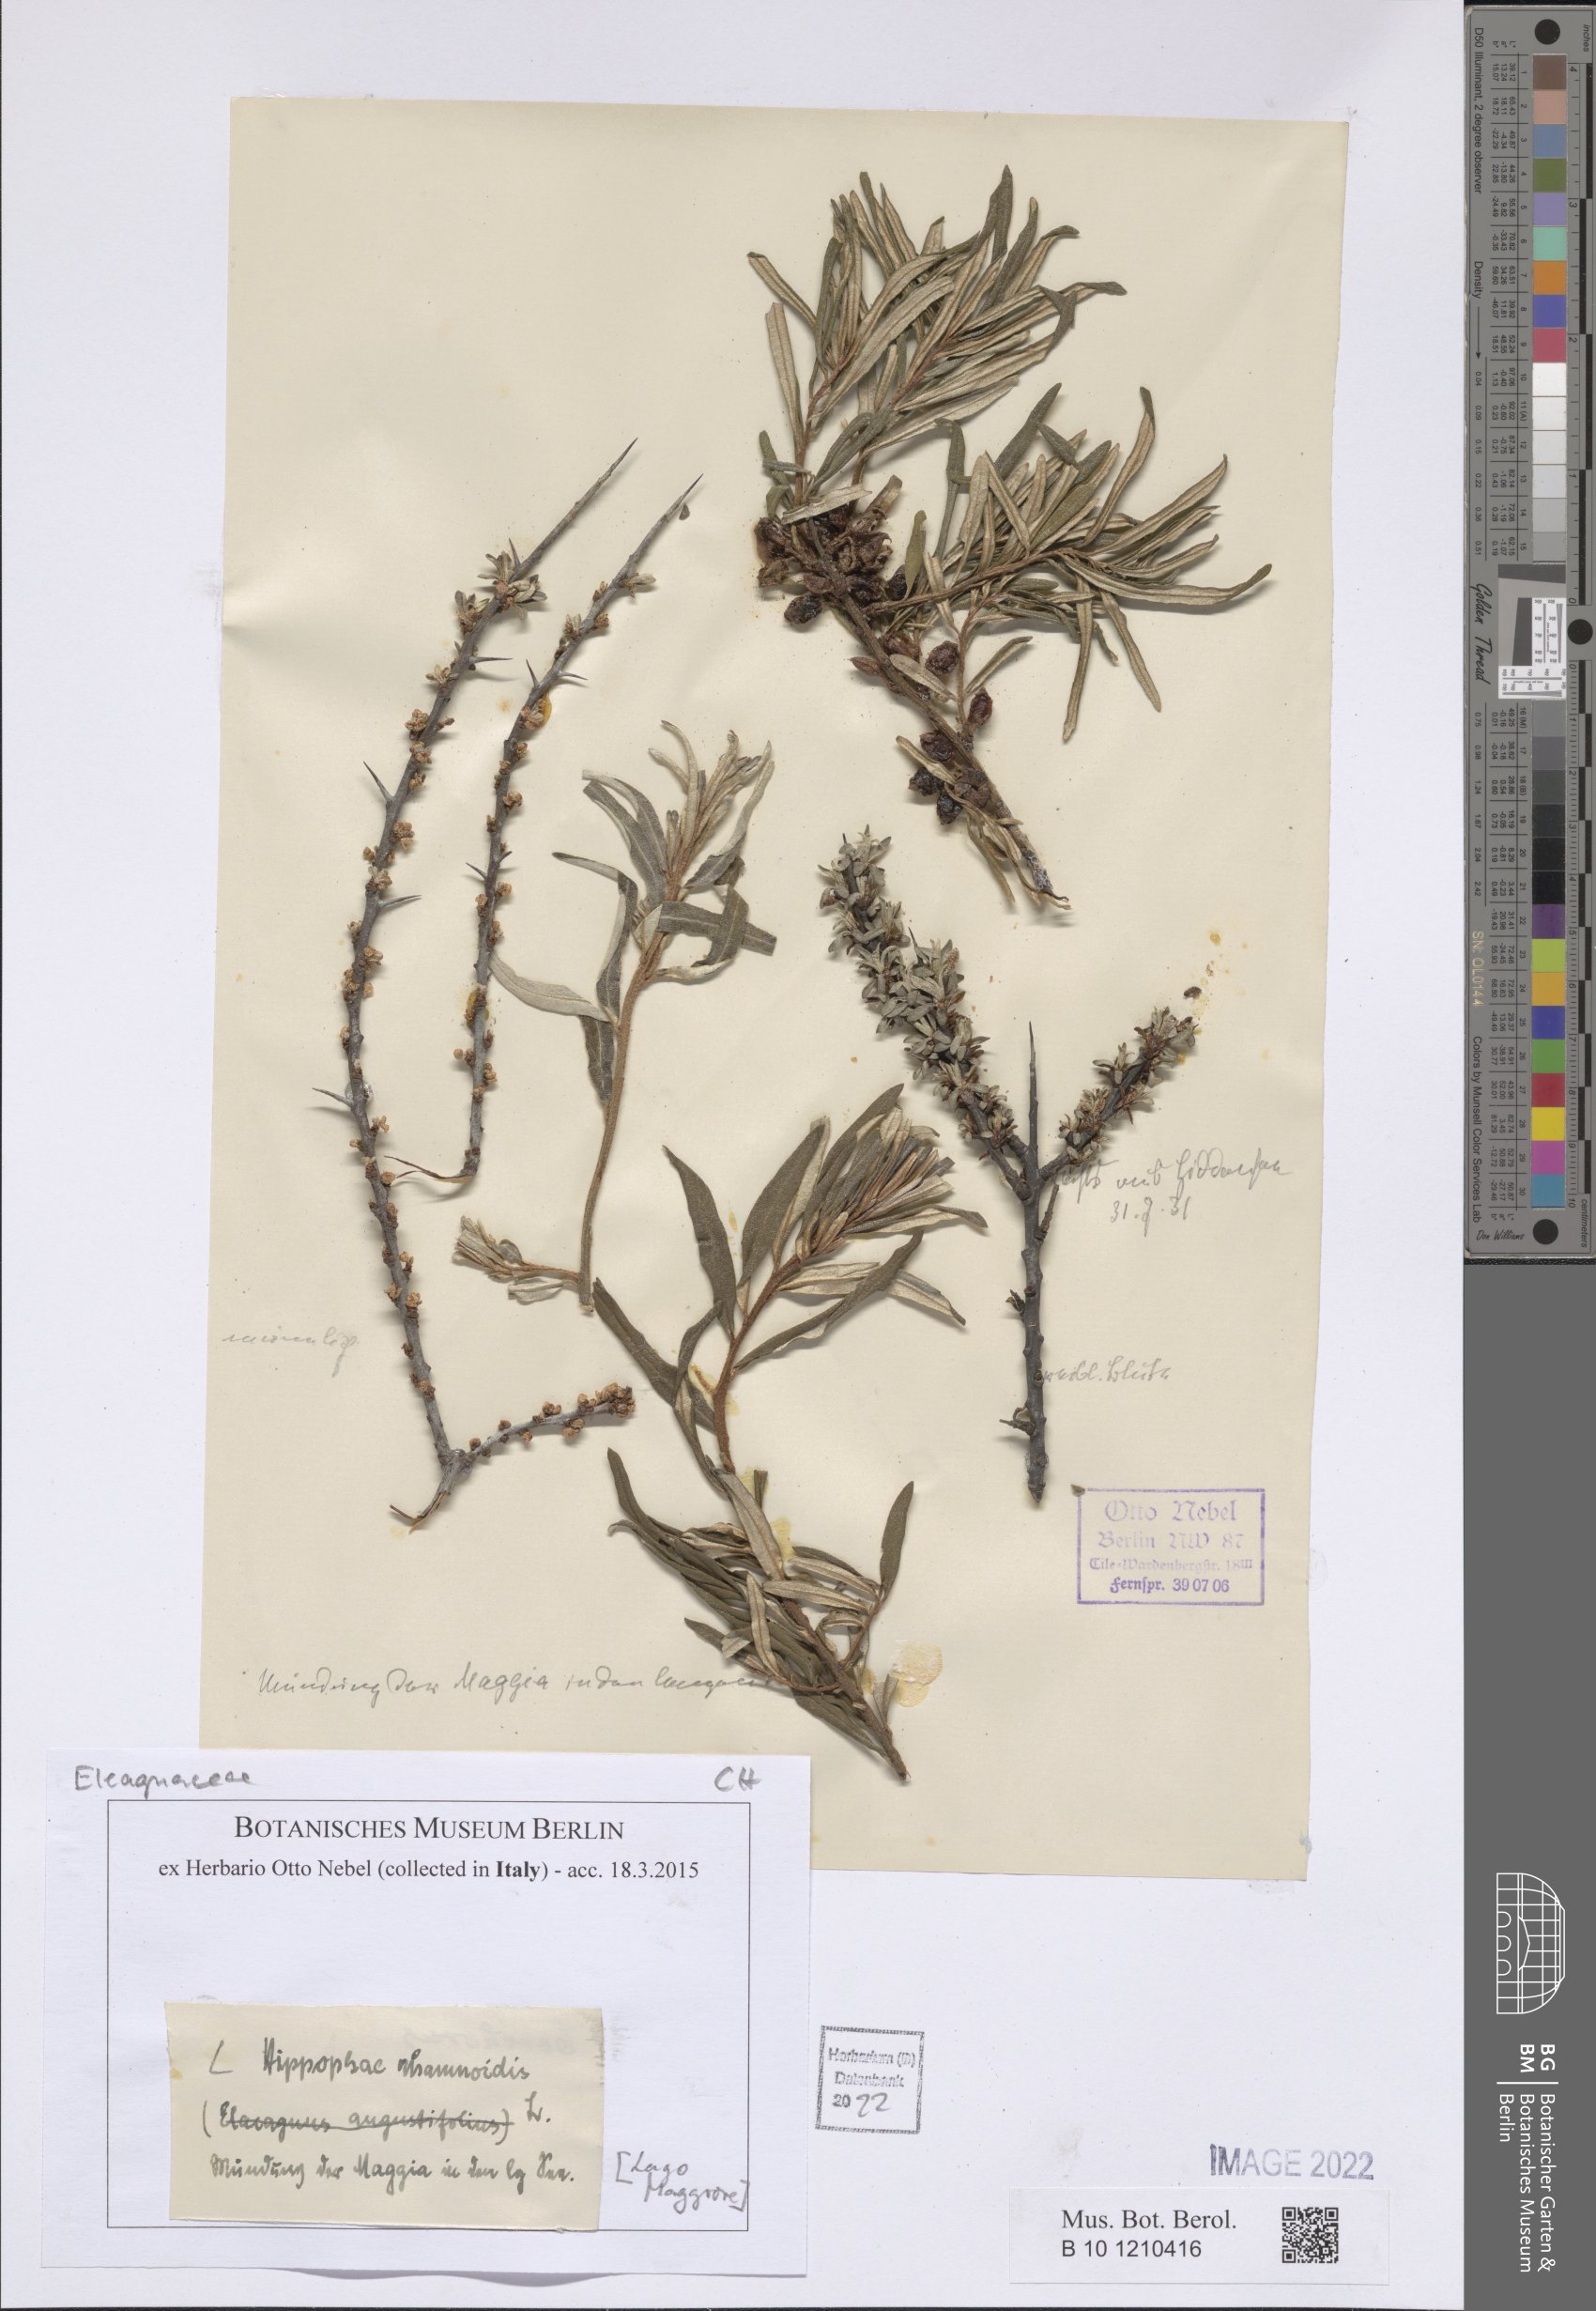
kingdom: Plantae
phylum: Tracheophyta
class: Magnoliopsida
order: Rosales
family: Elaeagnaceae
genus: Hippophae
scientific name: Hippophae rhamnoides
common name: Sea-buckthorn
